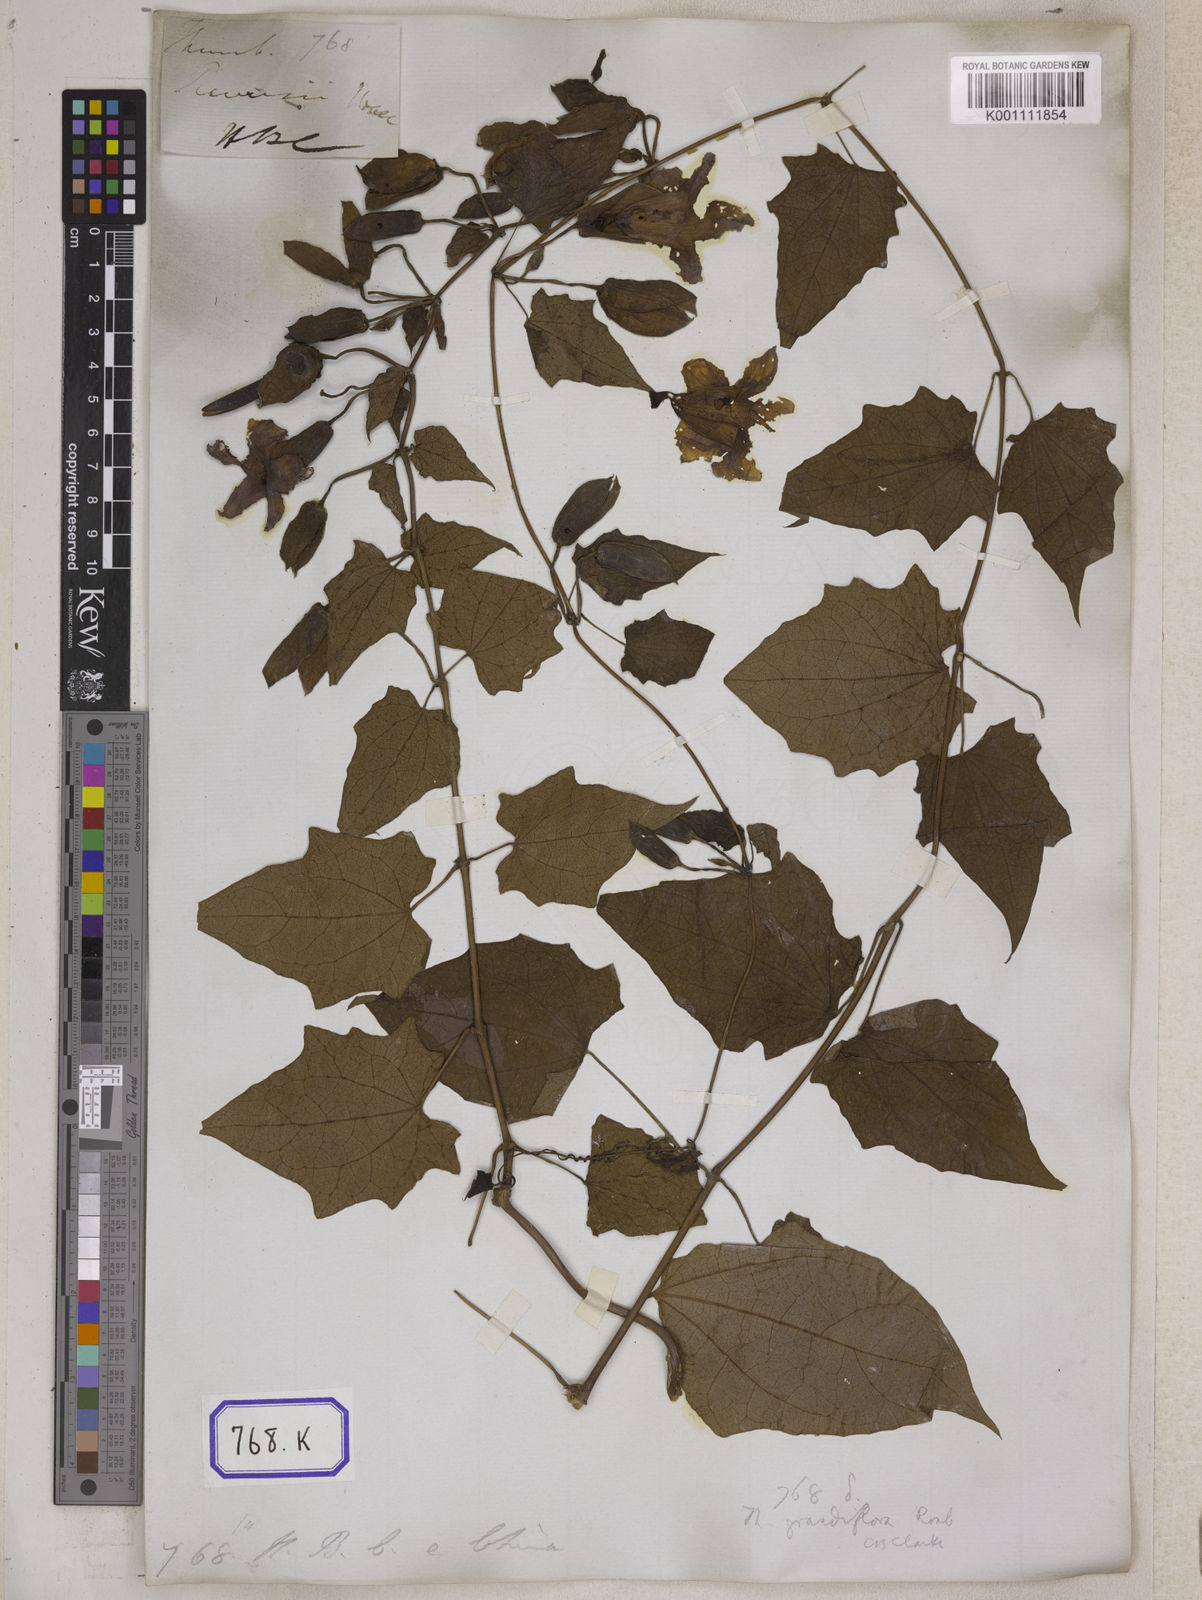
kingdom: Plantae
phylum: Tracheophyta
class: Magnoliopsida
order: Lamiales
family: Acanthaceae
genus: Thunbergia
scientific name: Thunbergia grandiflora
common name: Bengal trumpet
